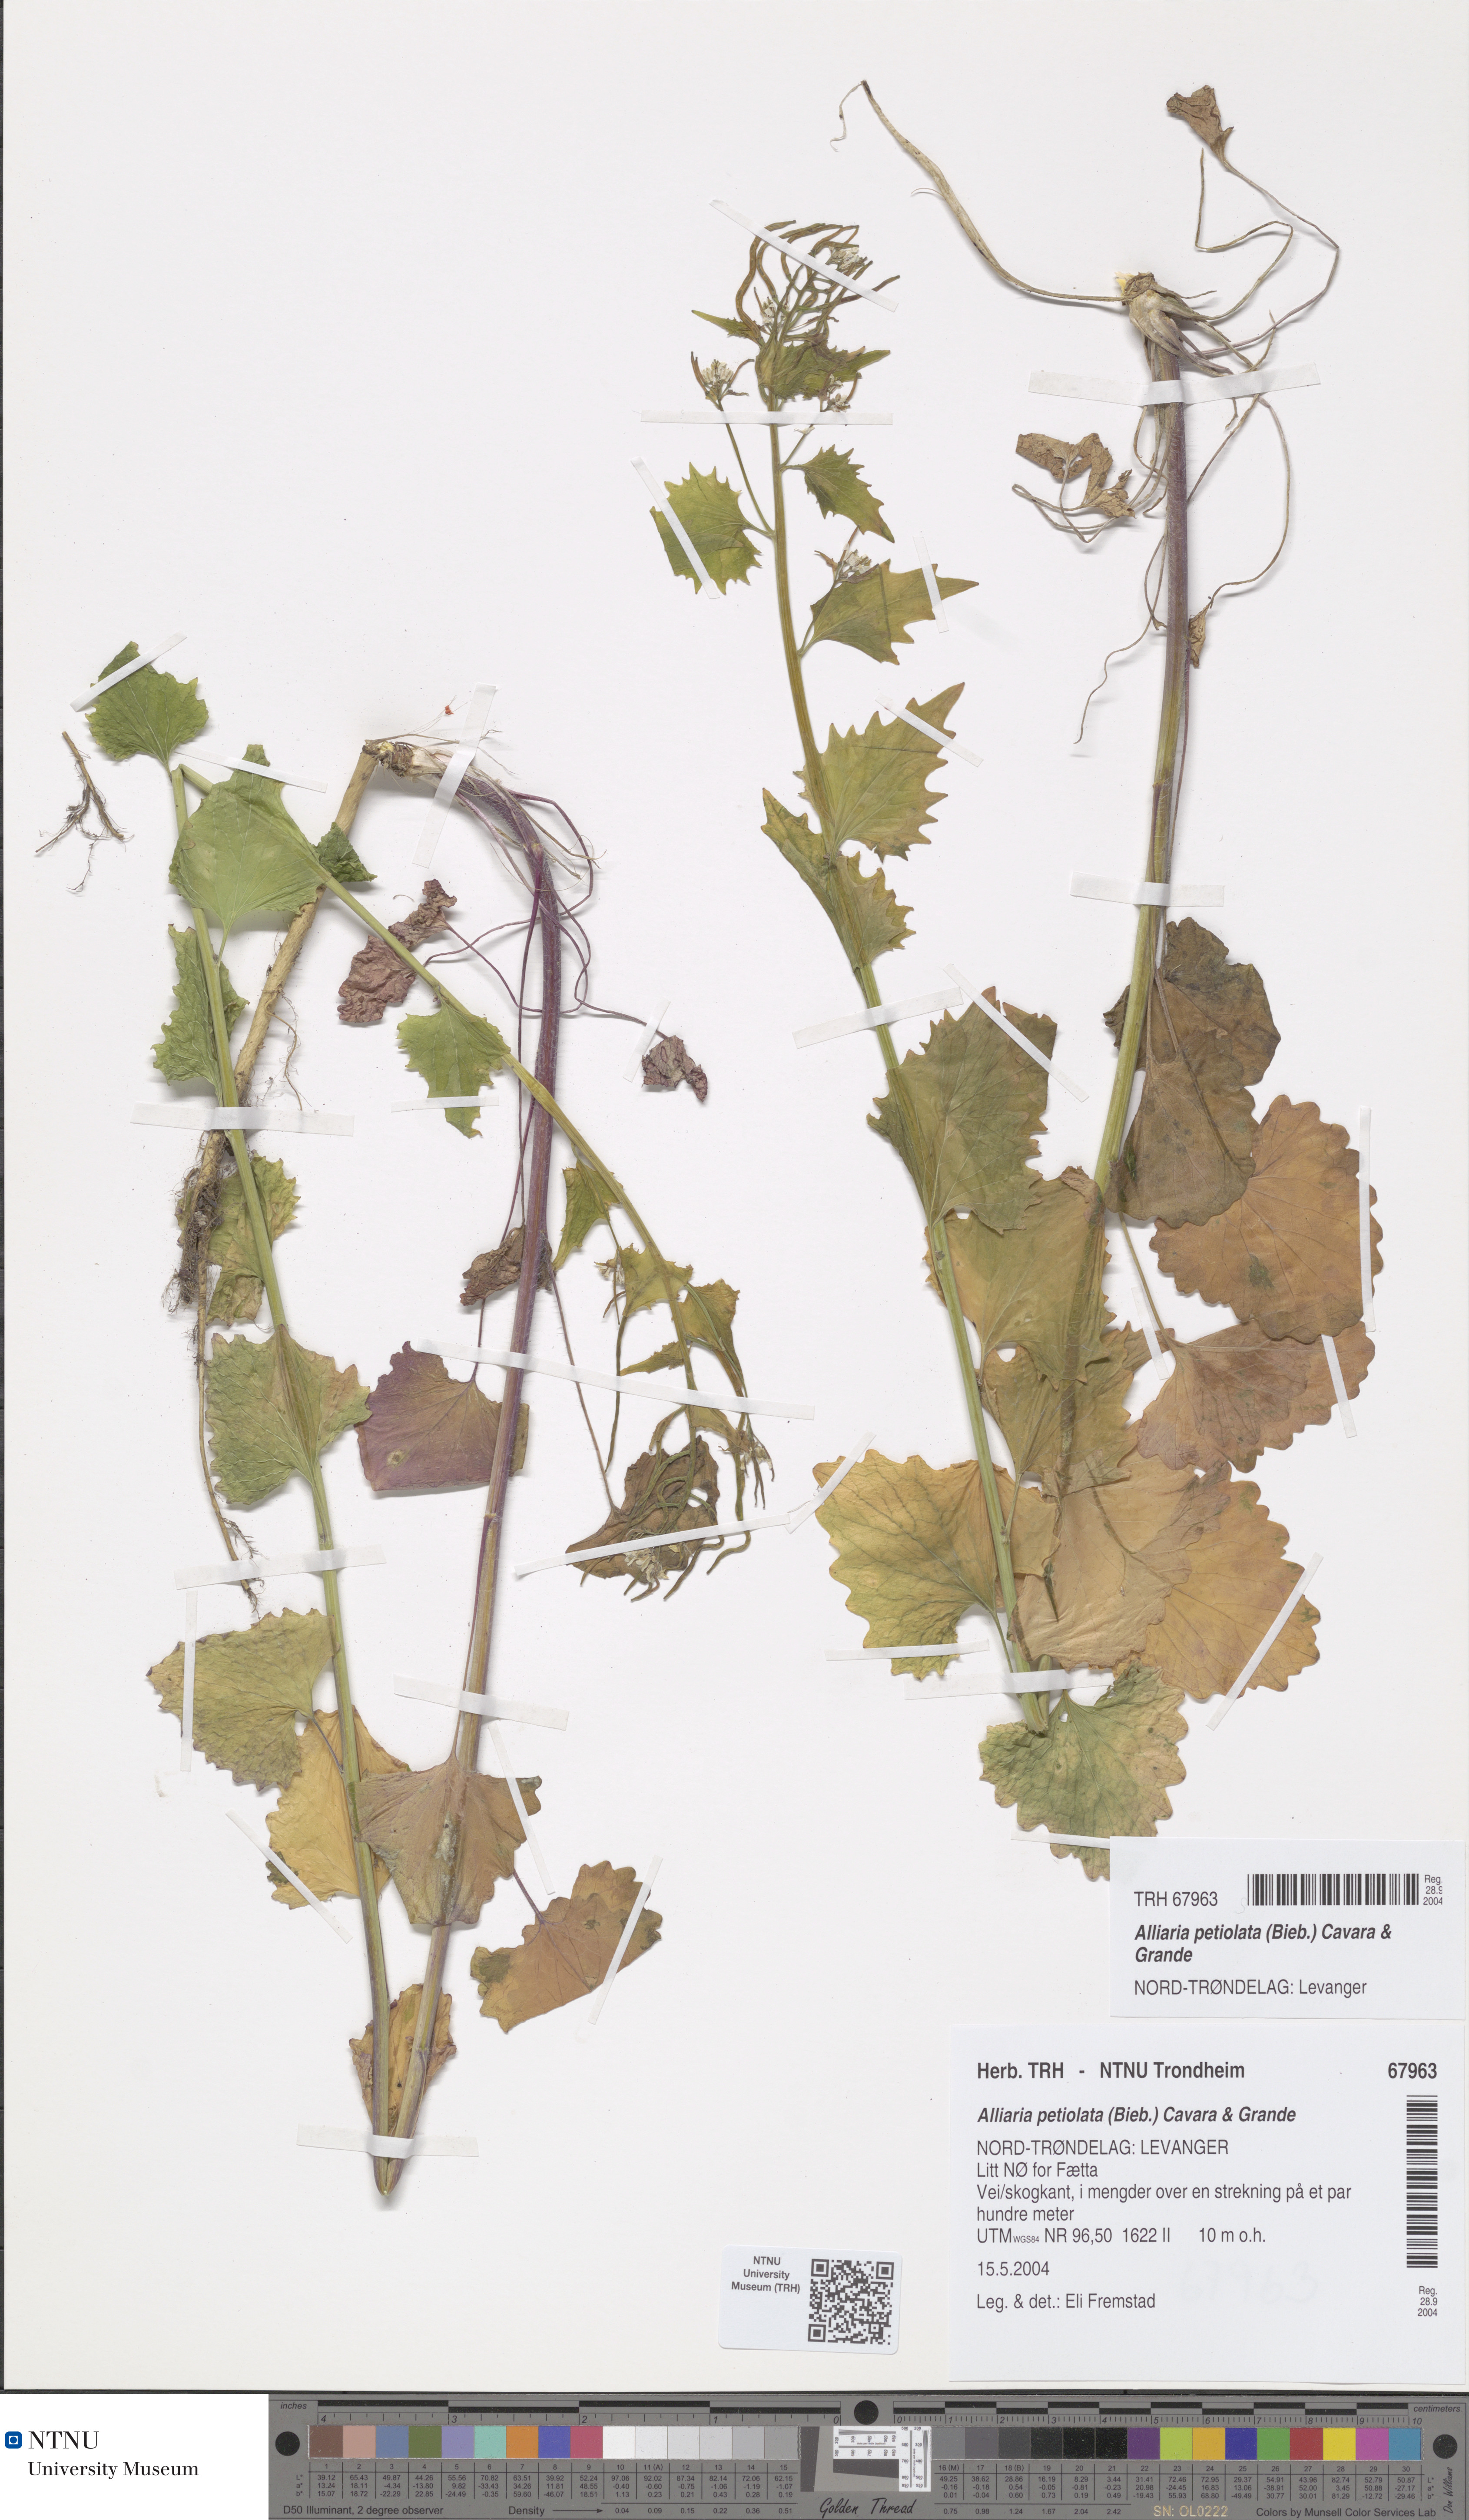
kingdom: Plantae
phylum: Tracheophyta
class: Magnoliopsida
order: Brassicales
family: Brassicaceae
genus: Alliaria
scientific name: Alliaria petiolata
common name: Garlic mustard
